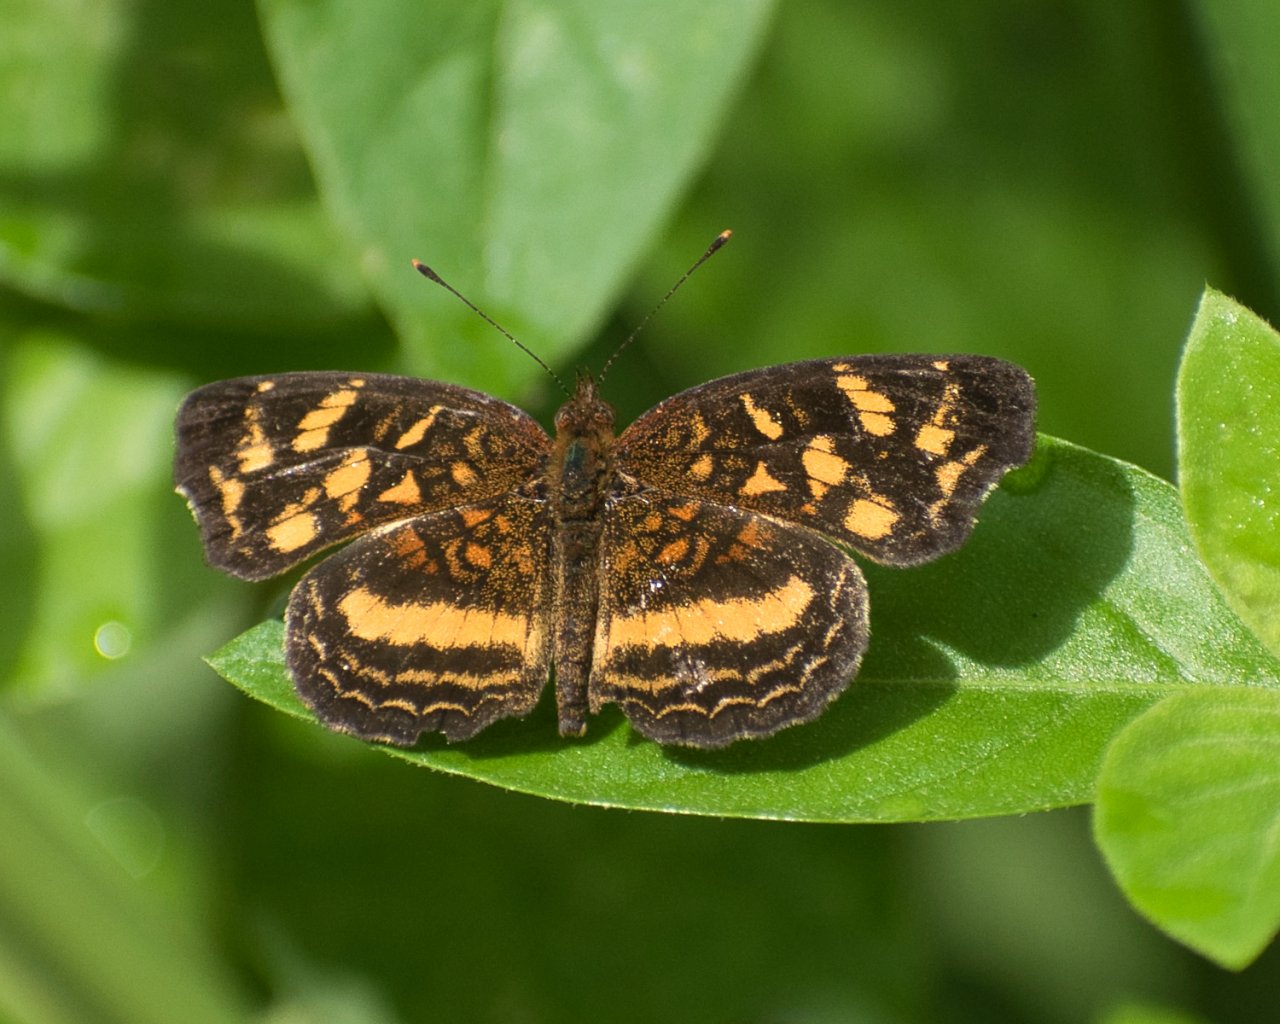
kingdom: Animalia
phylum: Arthropoda
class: Insecta
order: Lepidoptera
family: Nymphalidae
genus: Anthanassa
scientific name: Anthanassa drusilla
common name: Orange-patched Crescent
